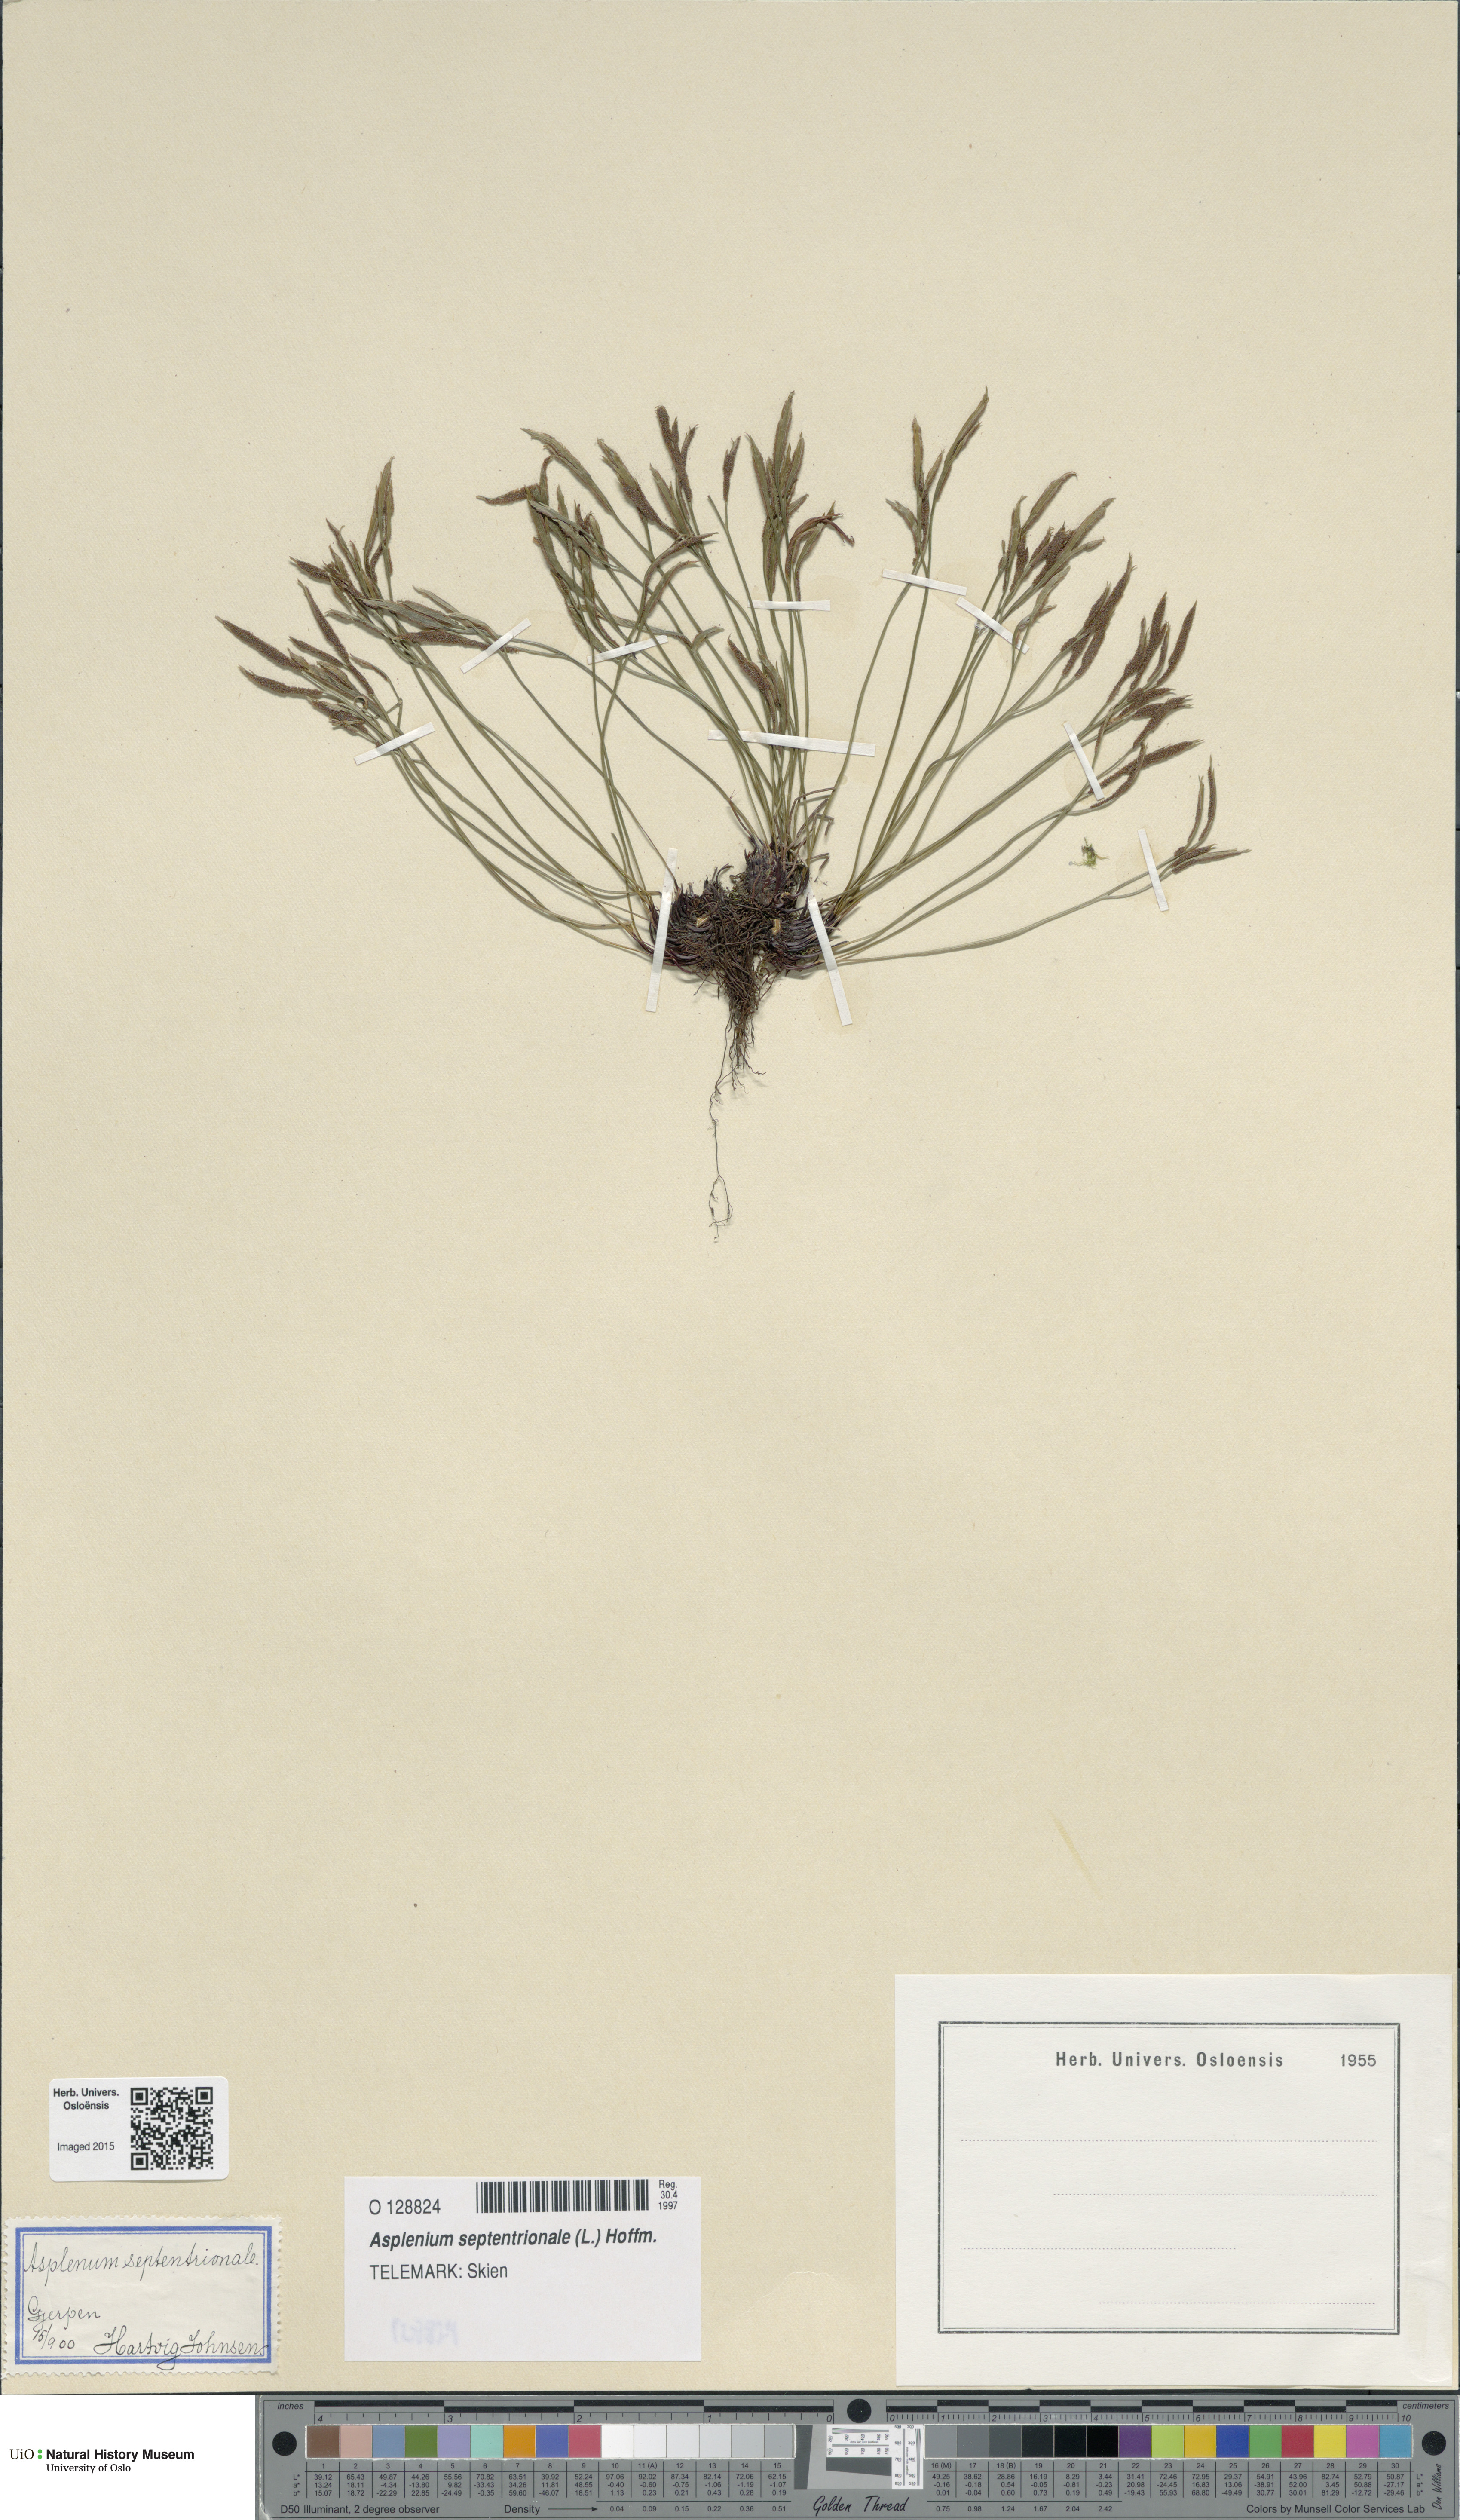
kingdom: Plantae
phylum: Tracheophyta
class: Polypodiopsida
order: Polypodiales
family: Aspleniaceae
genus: Asplenium
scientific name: Asplenium septentrionale
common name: Forked spleenwort
